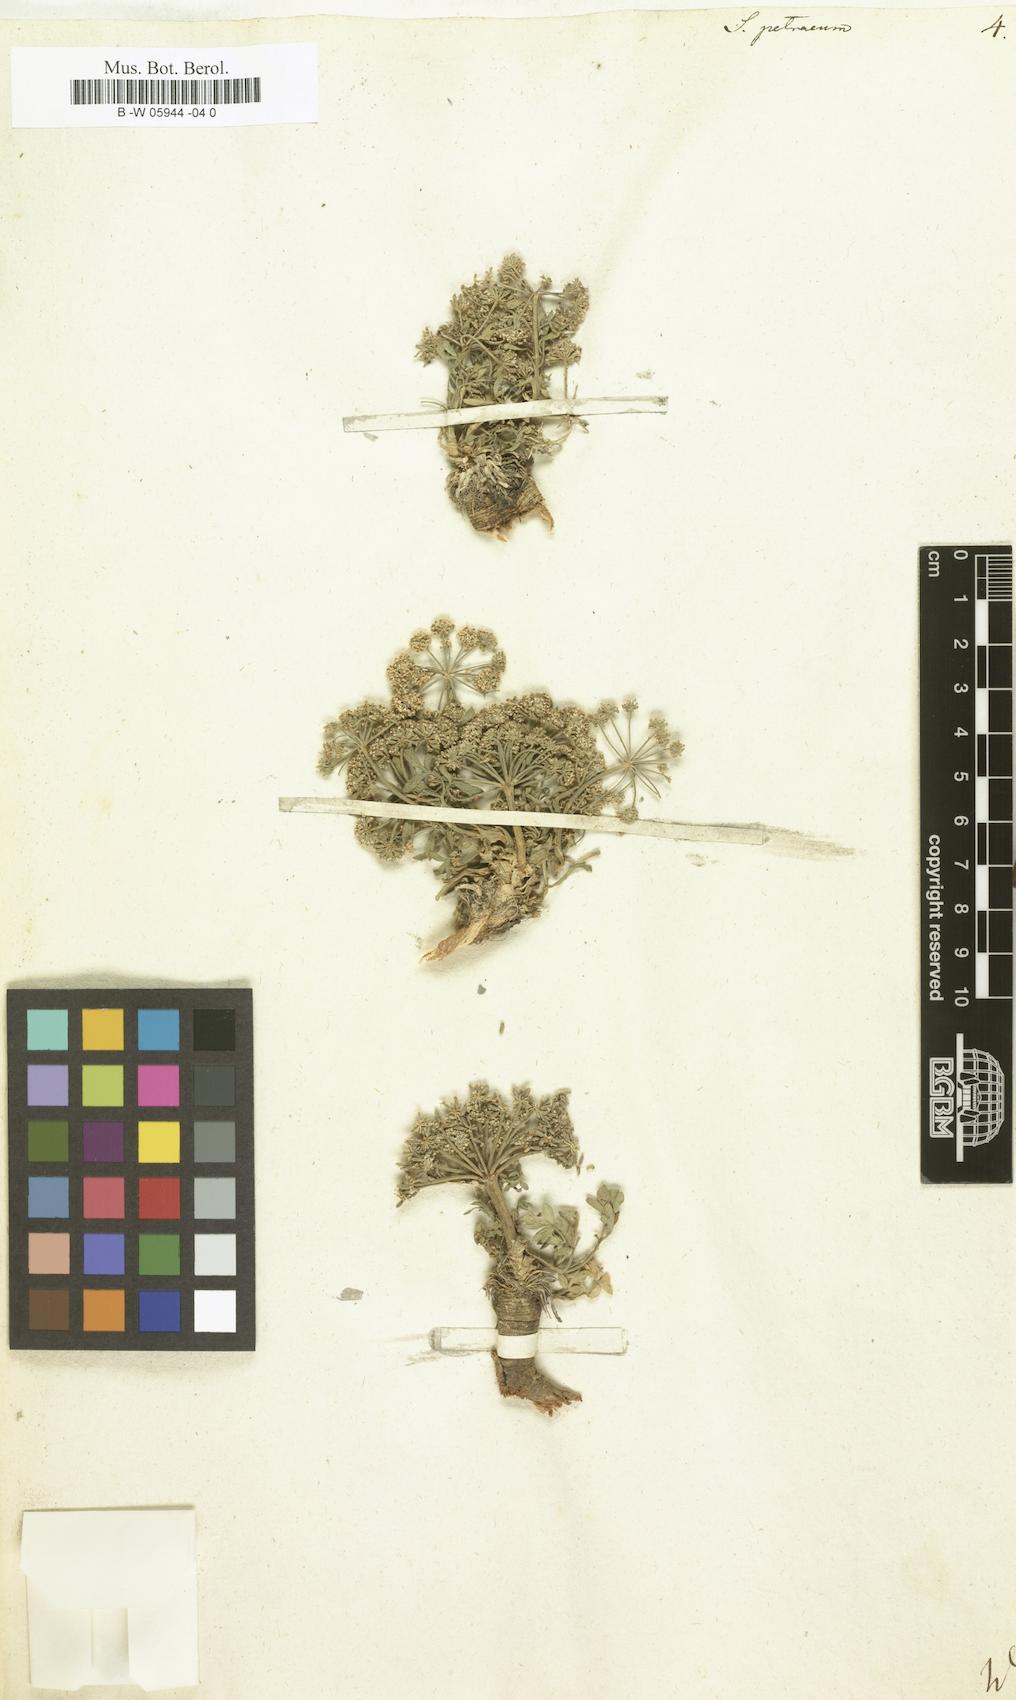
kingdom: Plantae
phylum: Tracheophyta
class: Magnoliopsida
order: Apiales
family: Apiaceae
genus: Hippomarathrum
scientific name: Hippomarathrum petraeum
